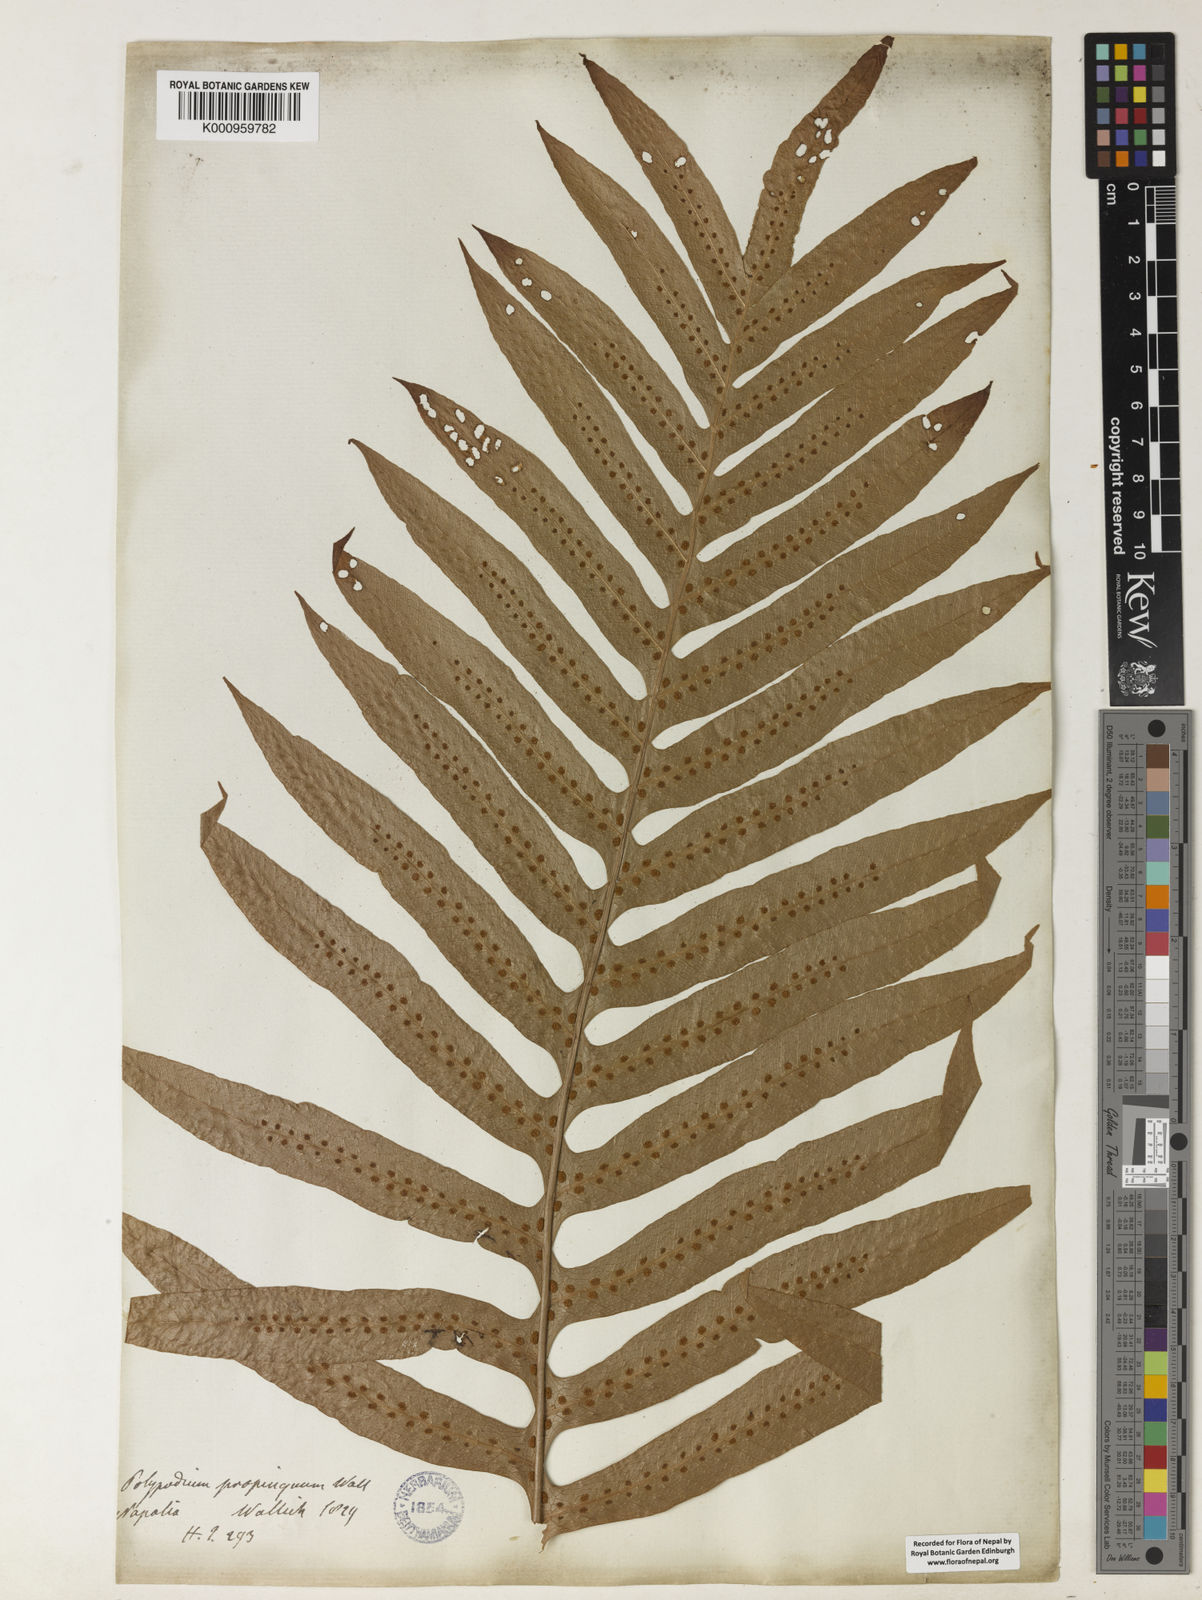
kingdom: Plantae
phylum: Tracheophyta
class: Polypodiopsida
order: Polypodiales
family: Polypodiaceae
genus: Drynaria
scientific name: Drynaria
